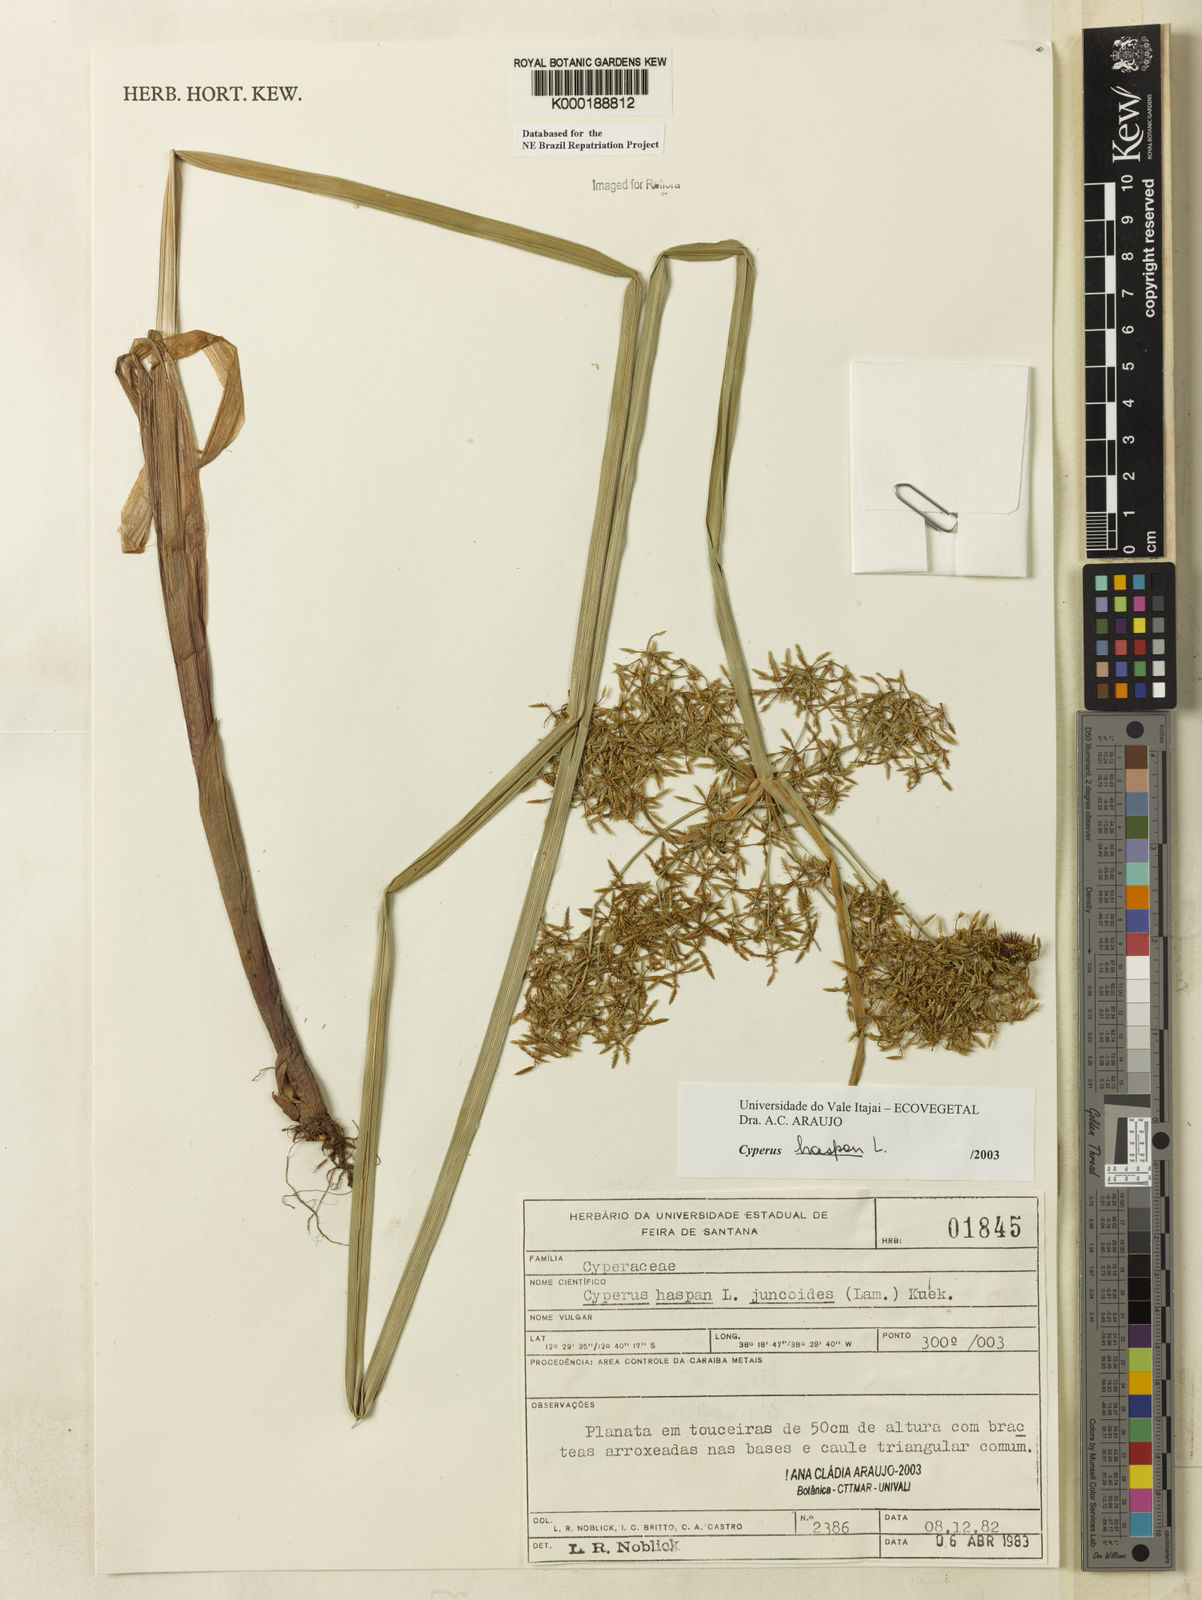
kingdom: Plantae
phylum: Tracheophyta
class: Liliopsida
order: Poales
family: Cyperaceae
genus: Cyperus
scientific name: Cyperus haspan
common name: Haspan flatsedge
